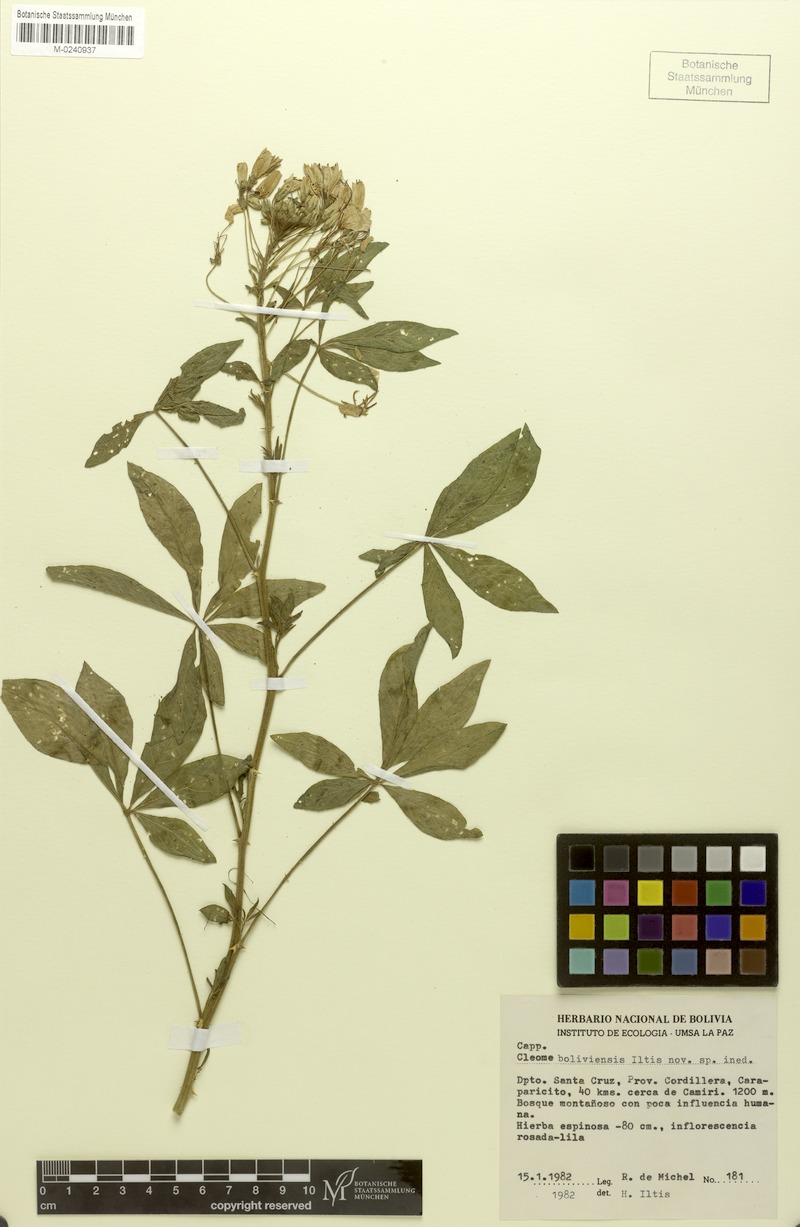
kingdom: Plantae
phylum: Tracheophyta
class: Magnoliopsida
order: Brassicales
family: Cleomaceae
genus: Tarenaya
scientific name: Tarenaya boliviensis
